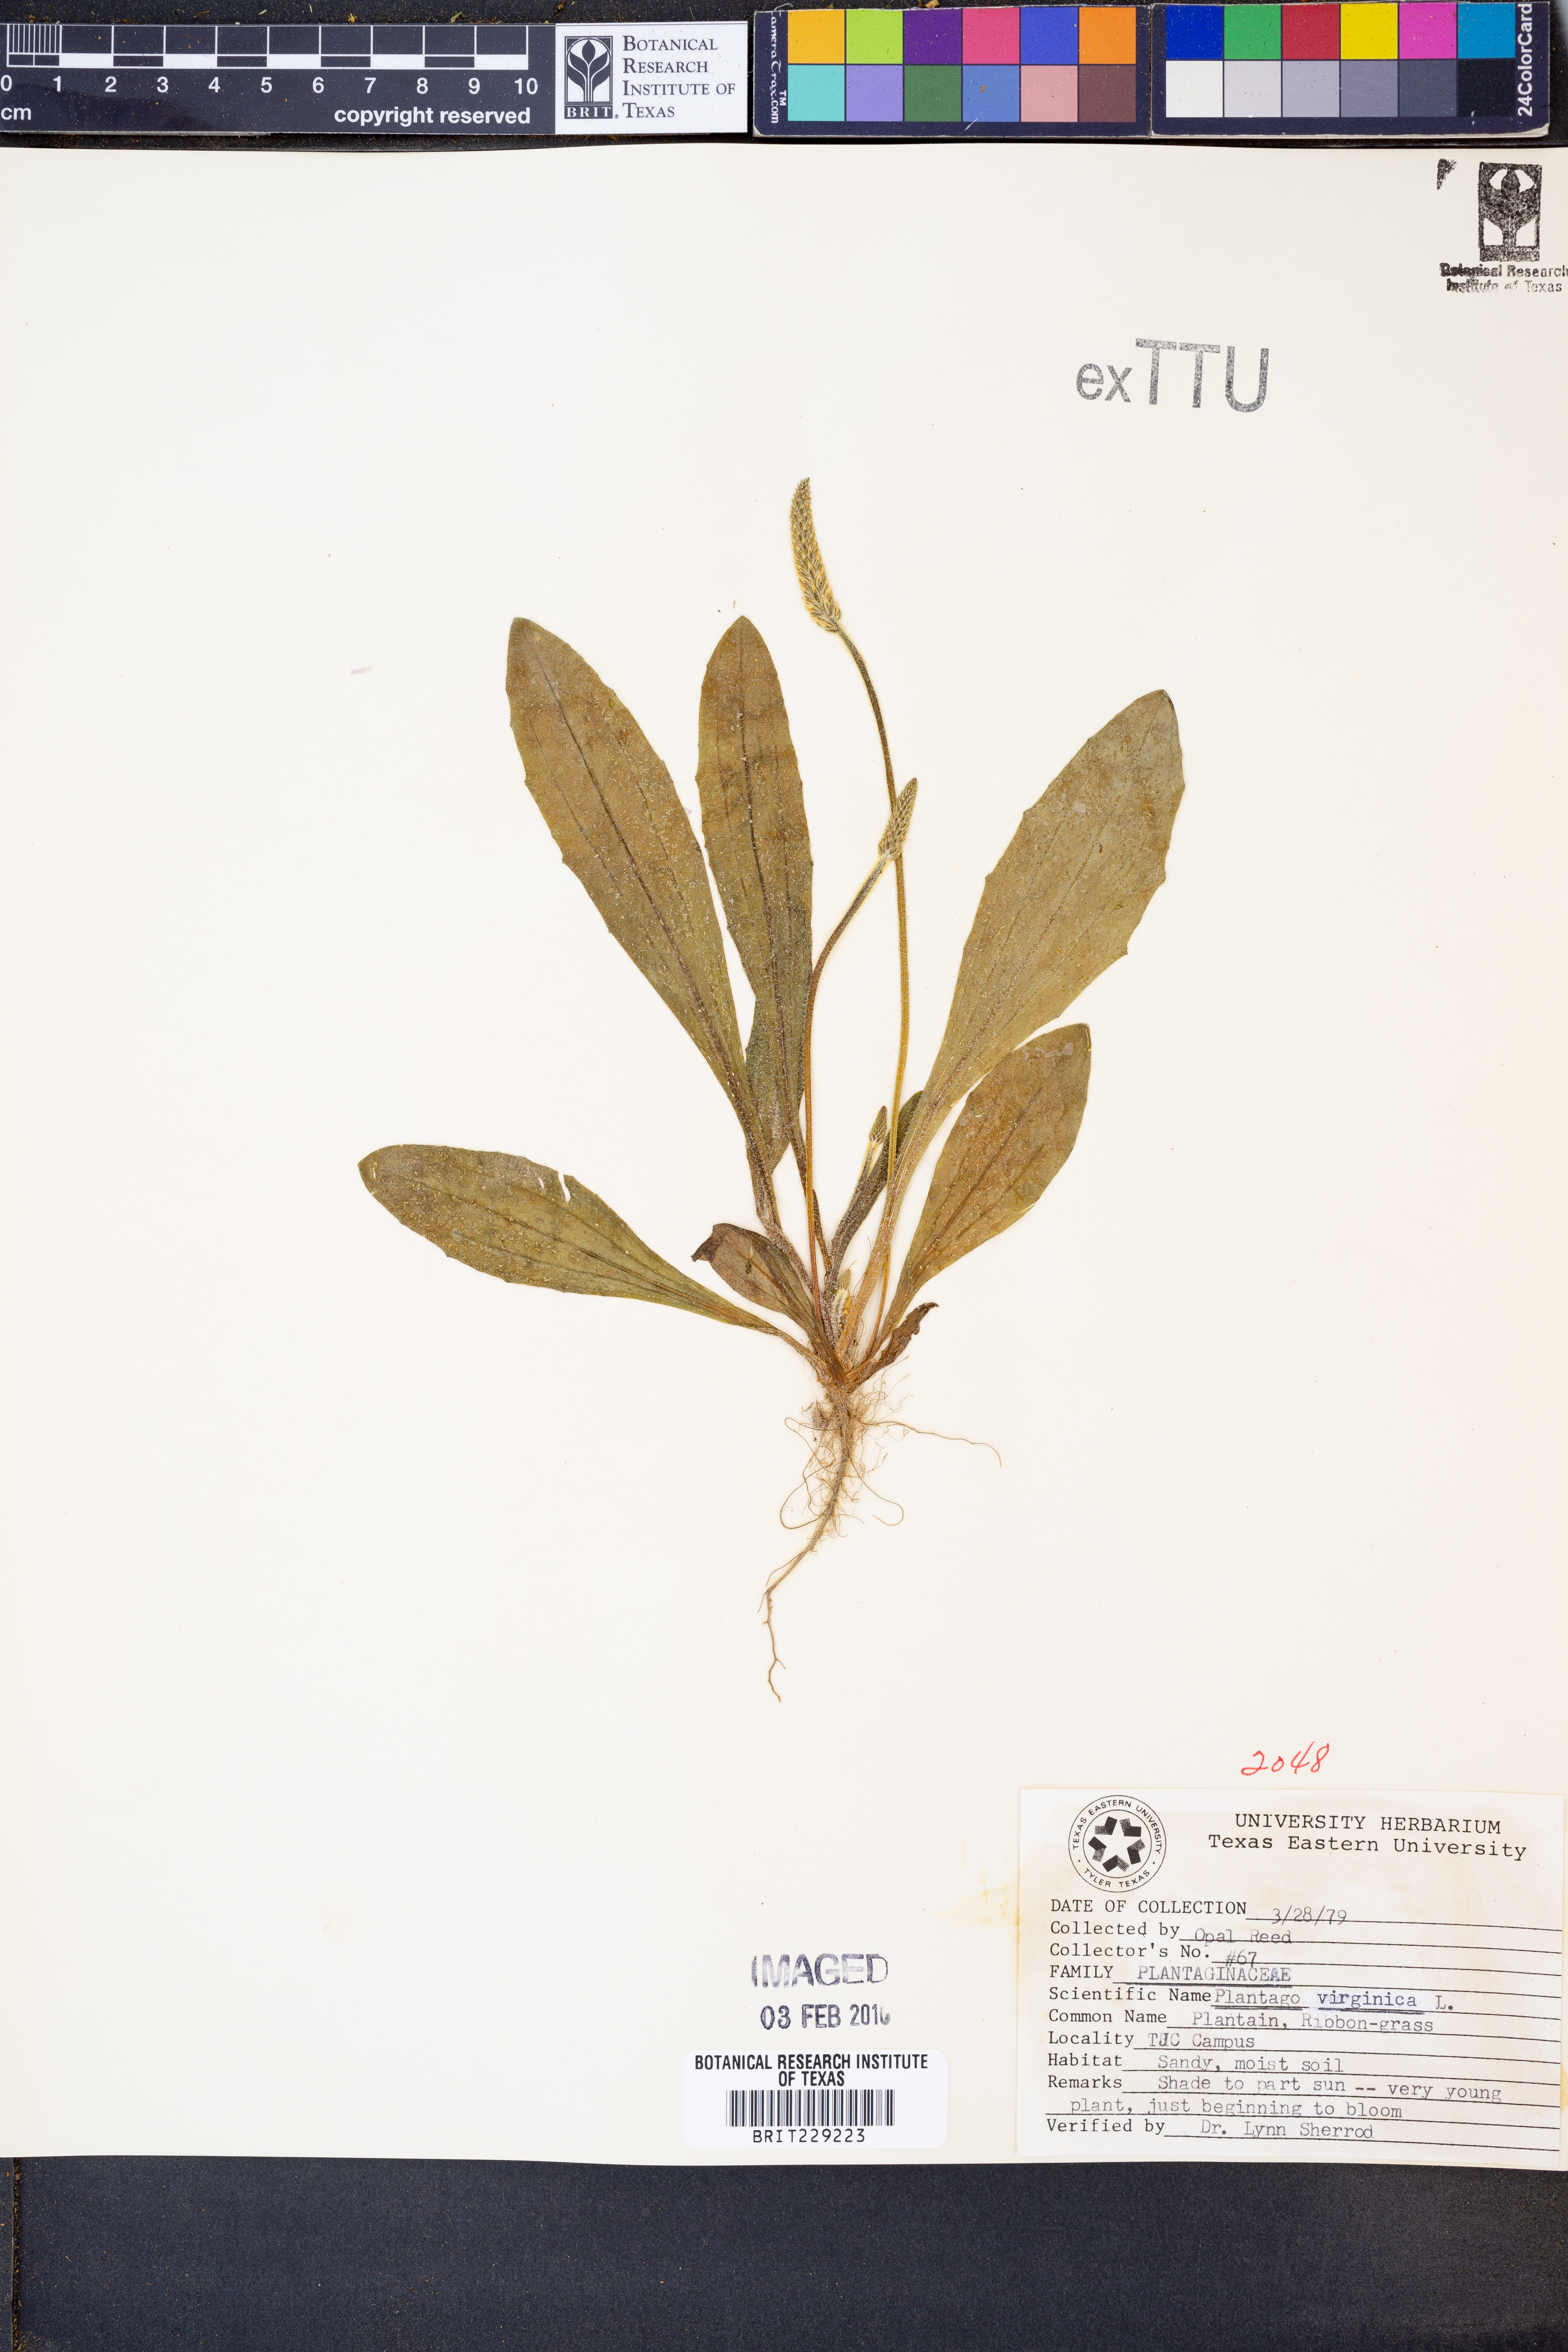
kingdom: Plantae
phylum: Tracheophyta
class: Magnoliopsida
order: Lamiales
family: Plantaginaceae
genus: Plantago
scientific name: Plantago virginica
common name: Hoary plantain
